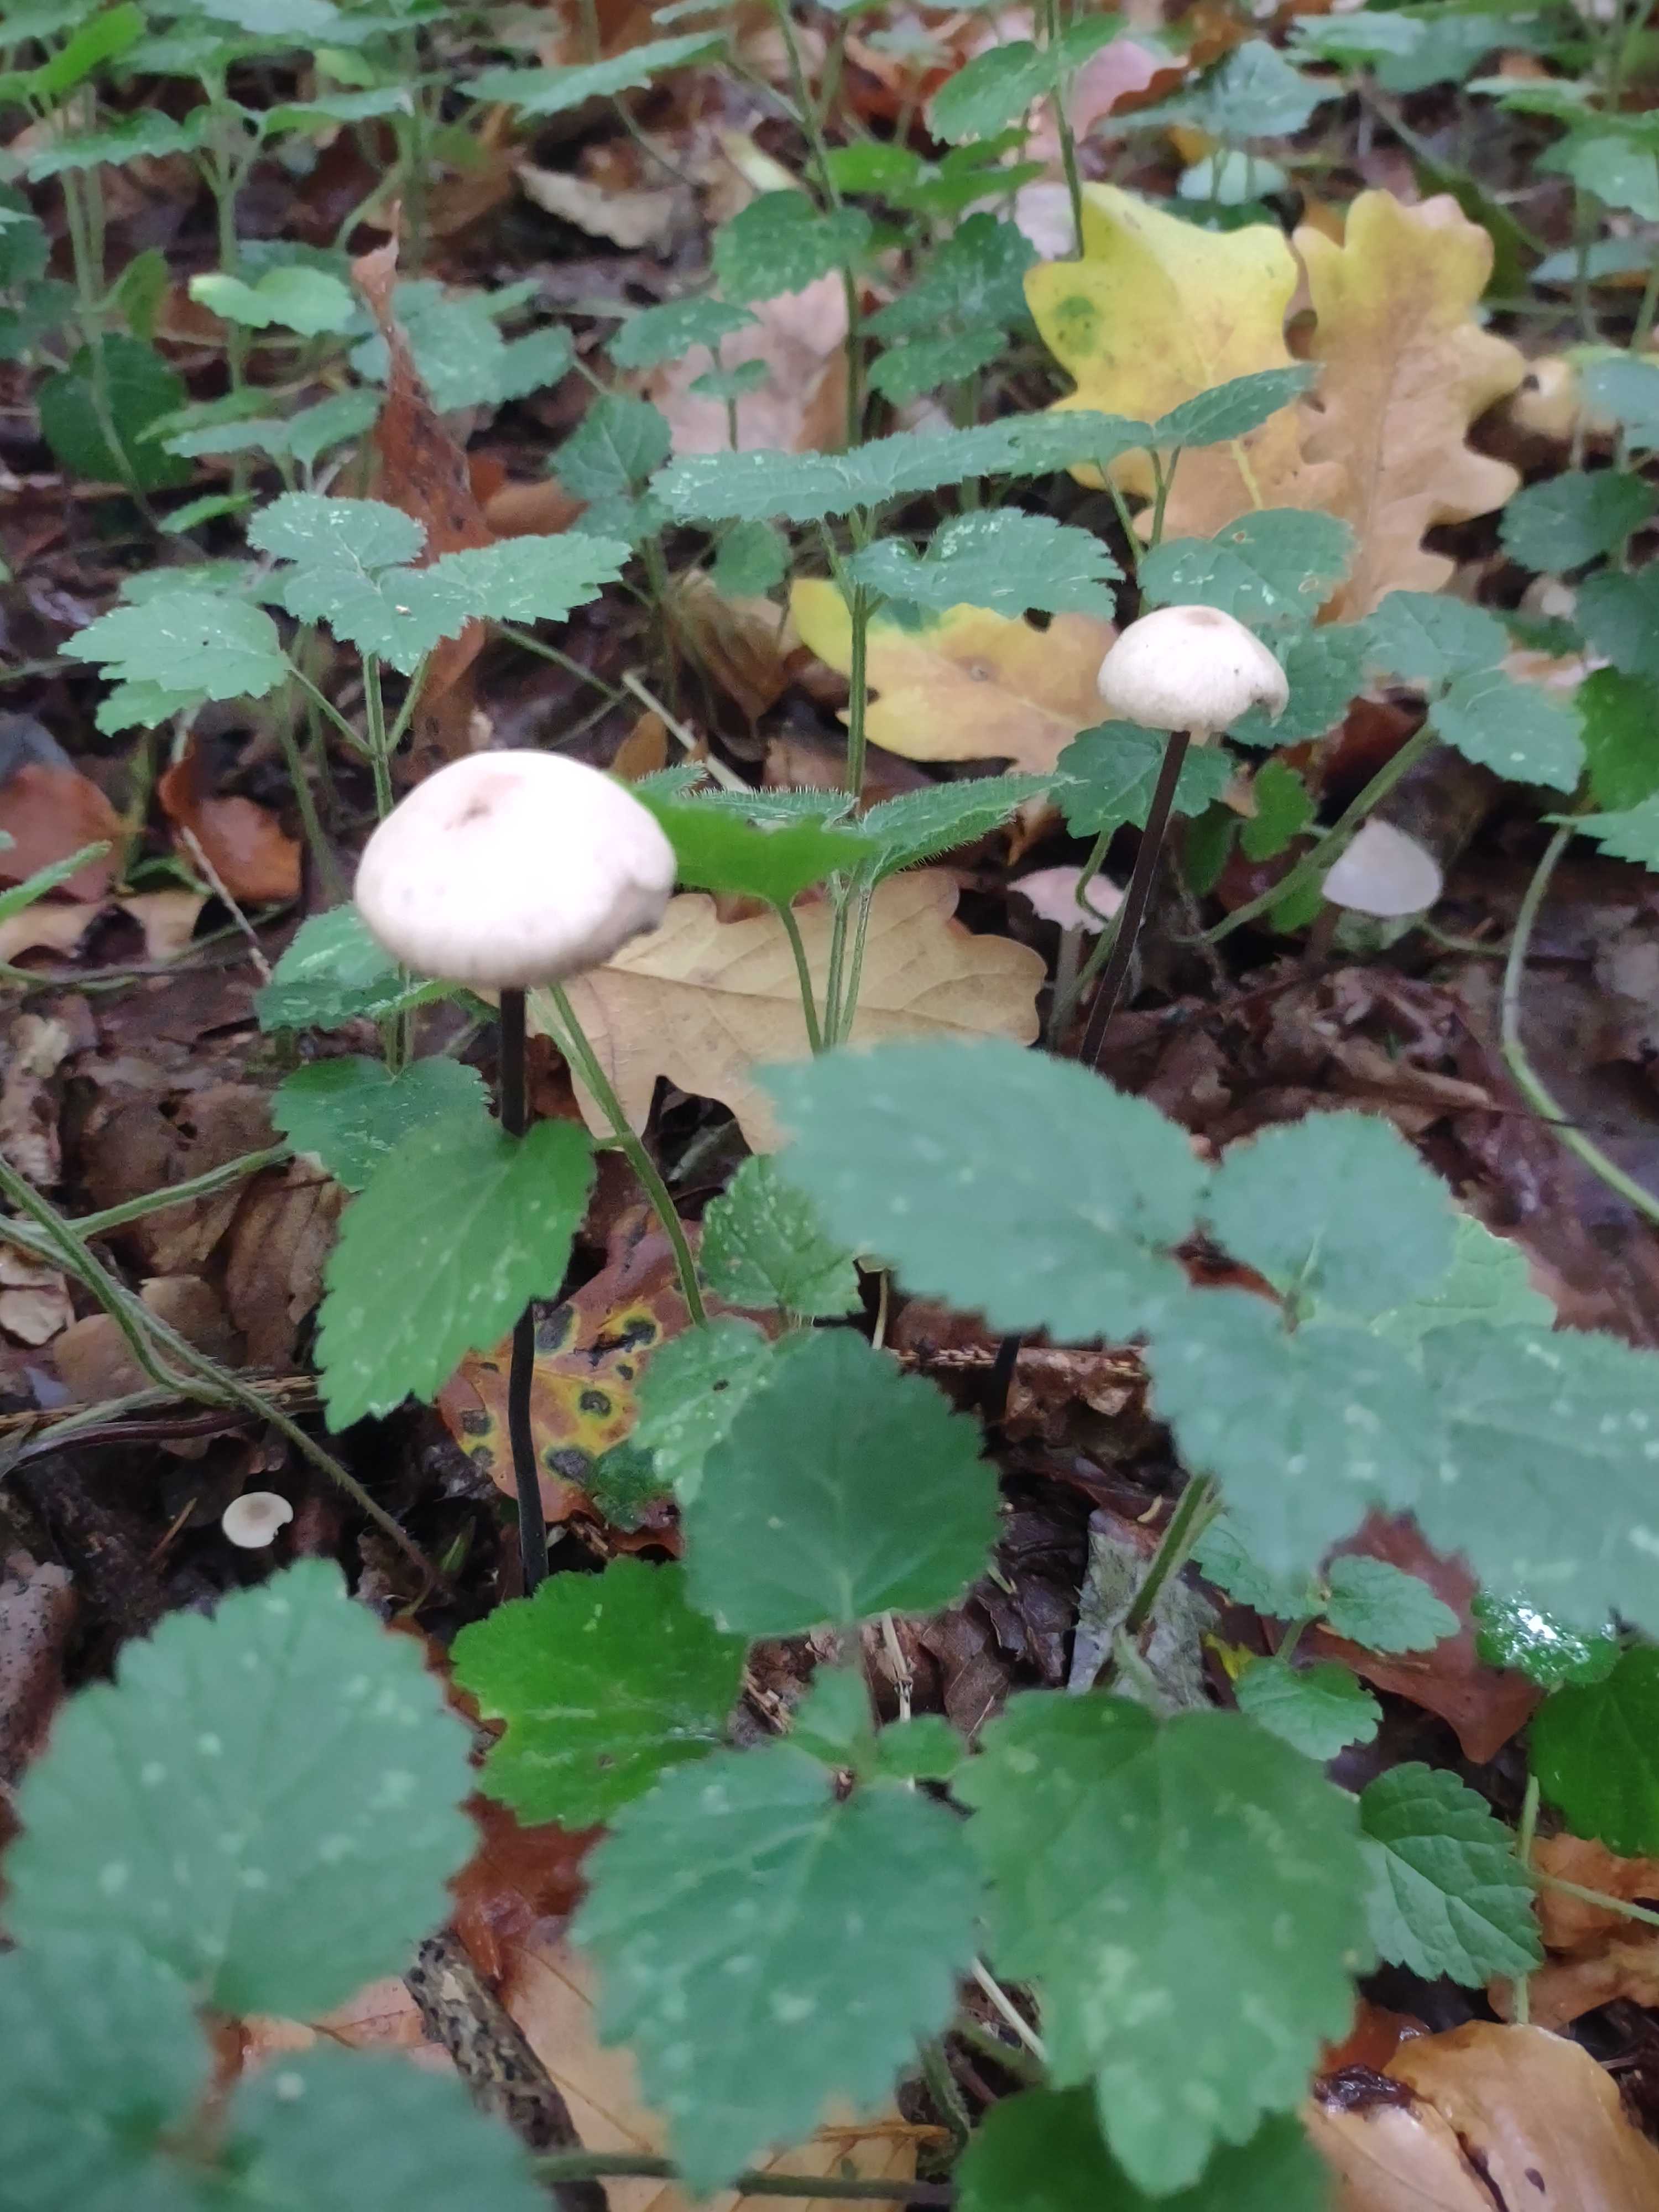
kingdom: Fungi
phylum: Basidiomycota
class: Agaricomycetes
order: Agaricales
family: Omphalotaceae
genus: Mycetinis
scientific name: Mycetinis alliaceus
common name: stor løghat
